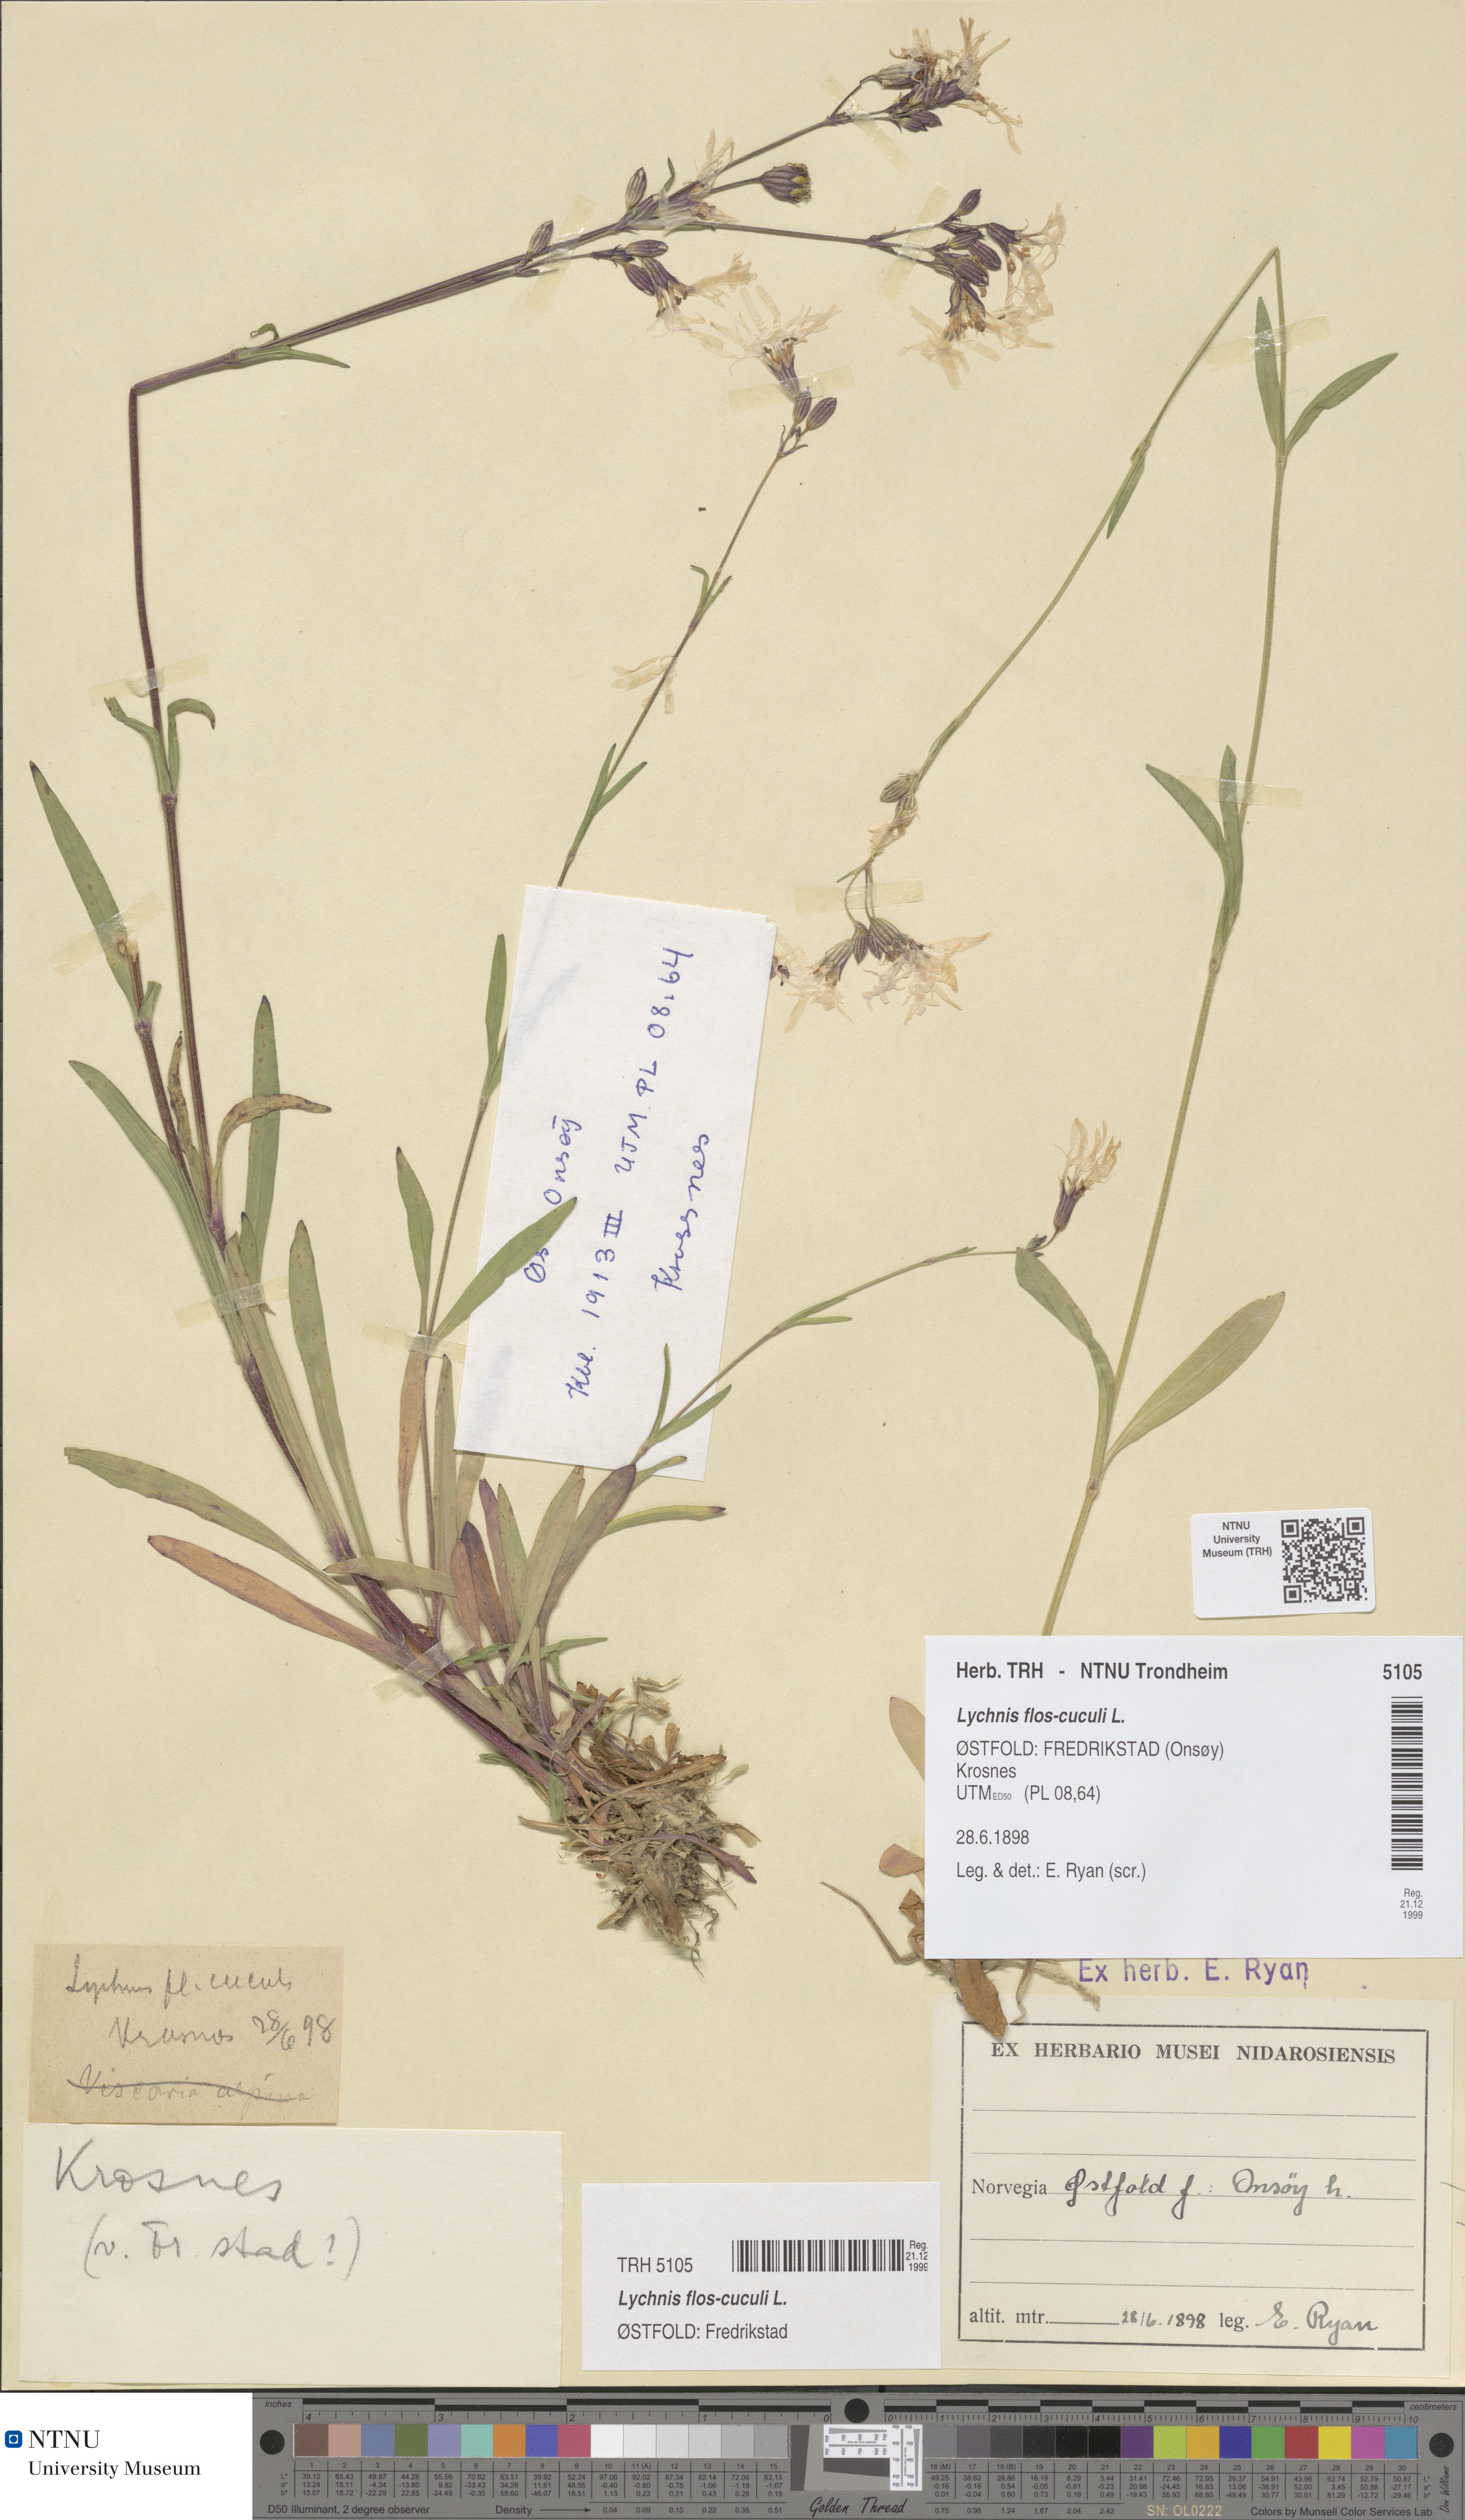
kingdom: Plantae
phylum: Tracheophyta
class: Magnoliopsida
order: Caryophyllales
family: Caryophyllaceae
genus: Silene
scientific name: Silene flos-cuculi
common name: Ragged-robin
